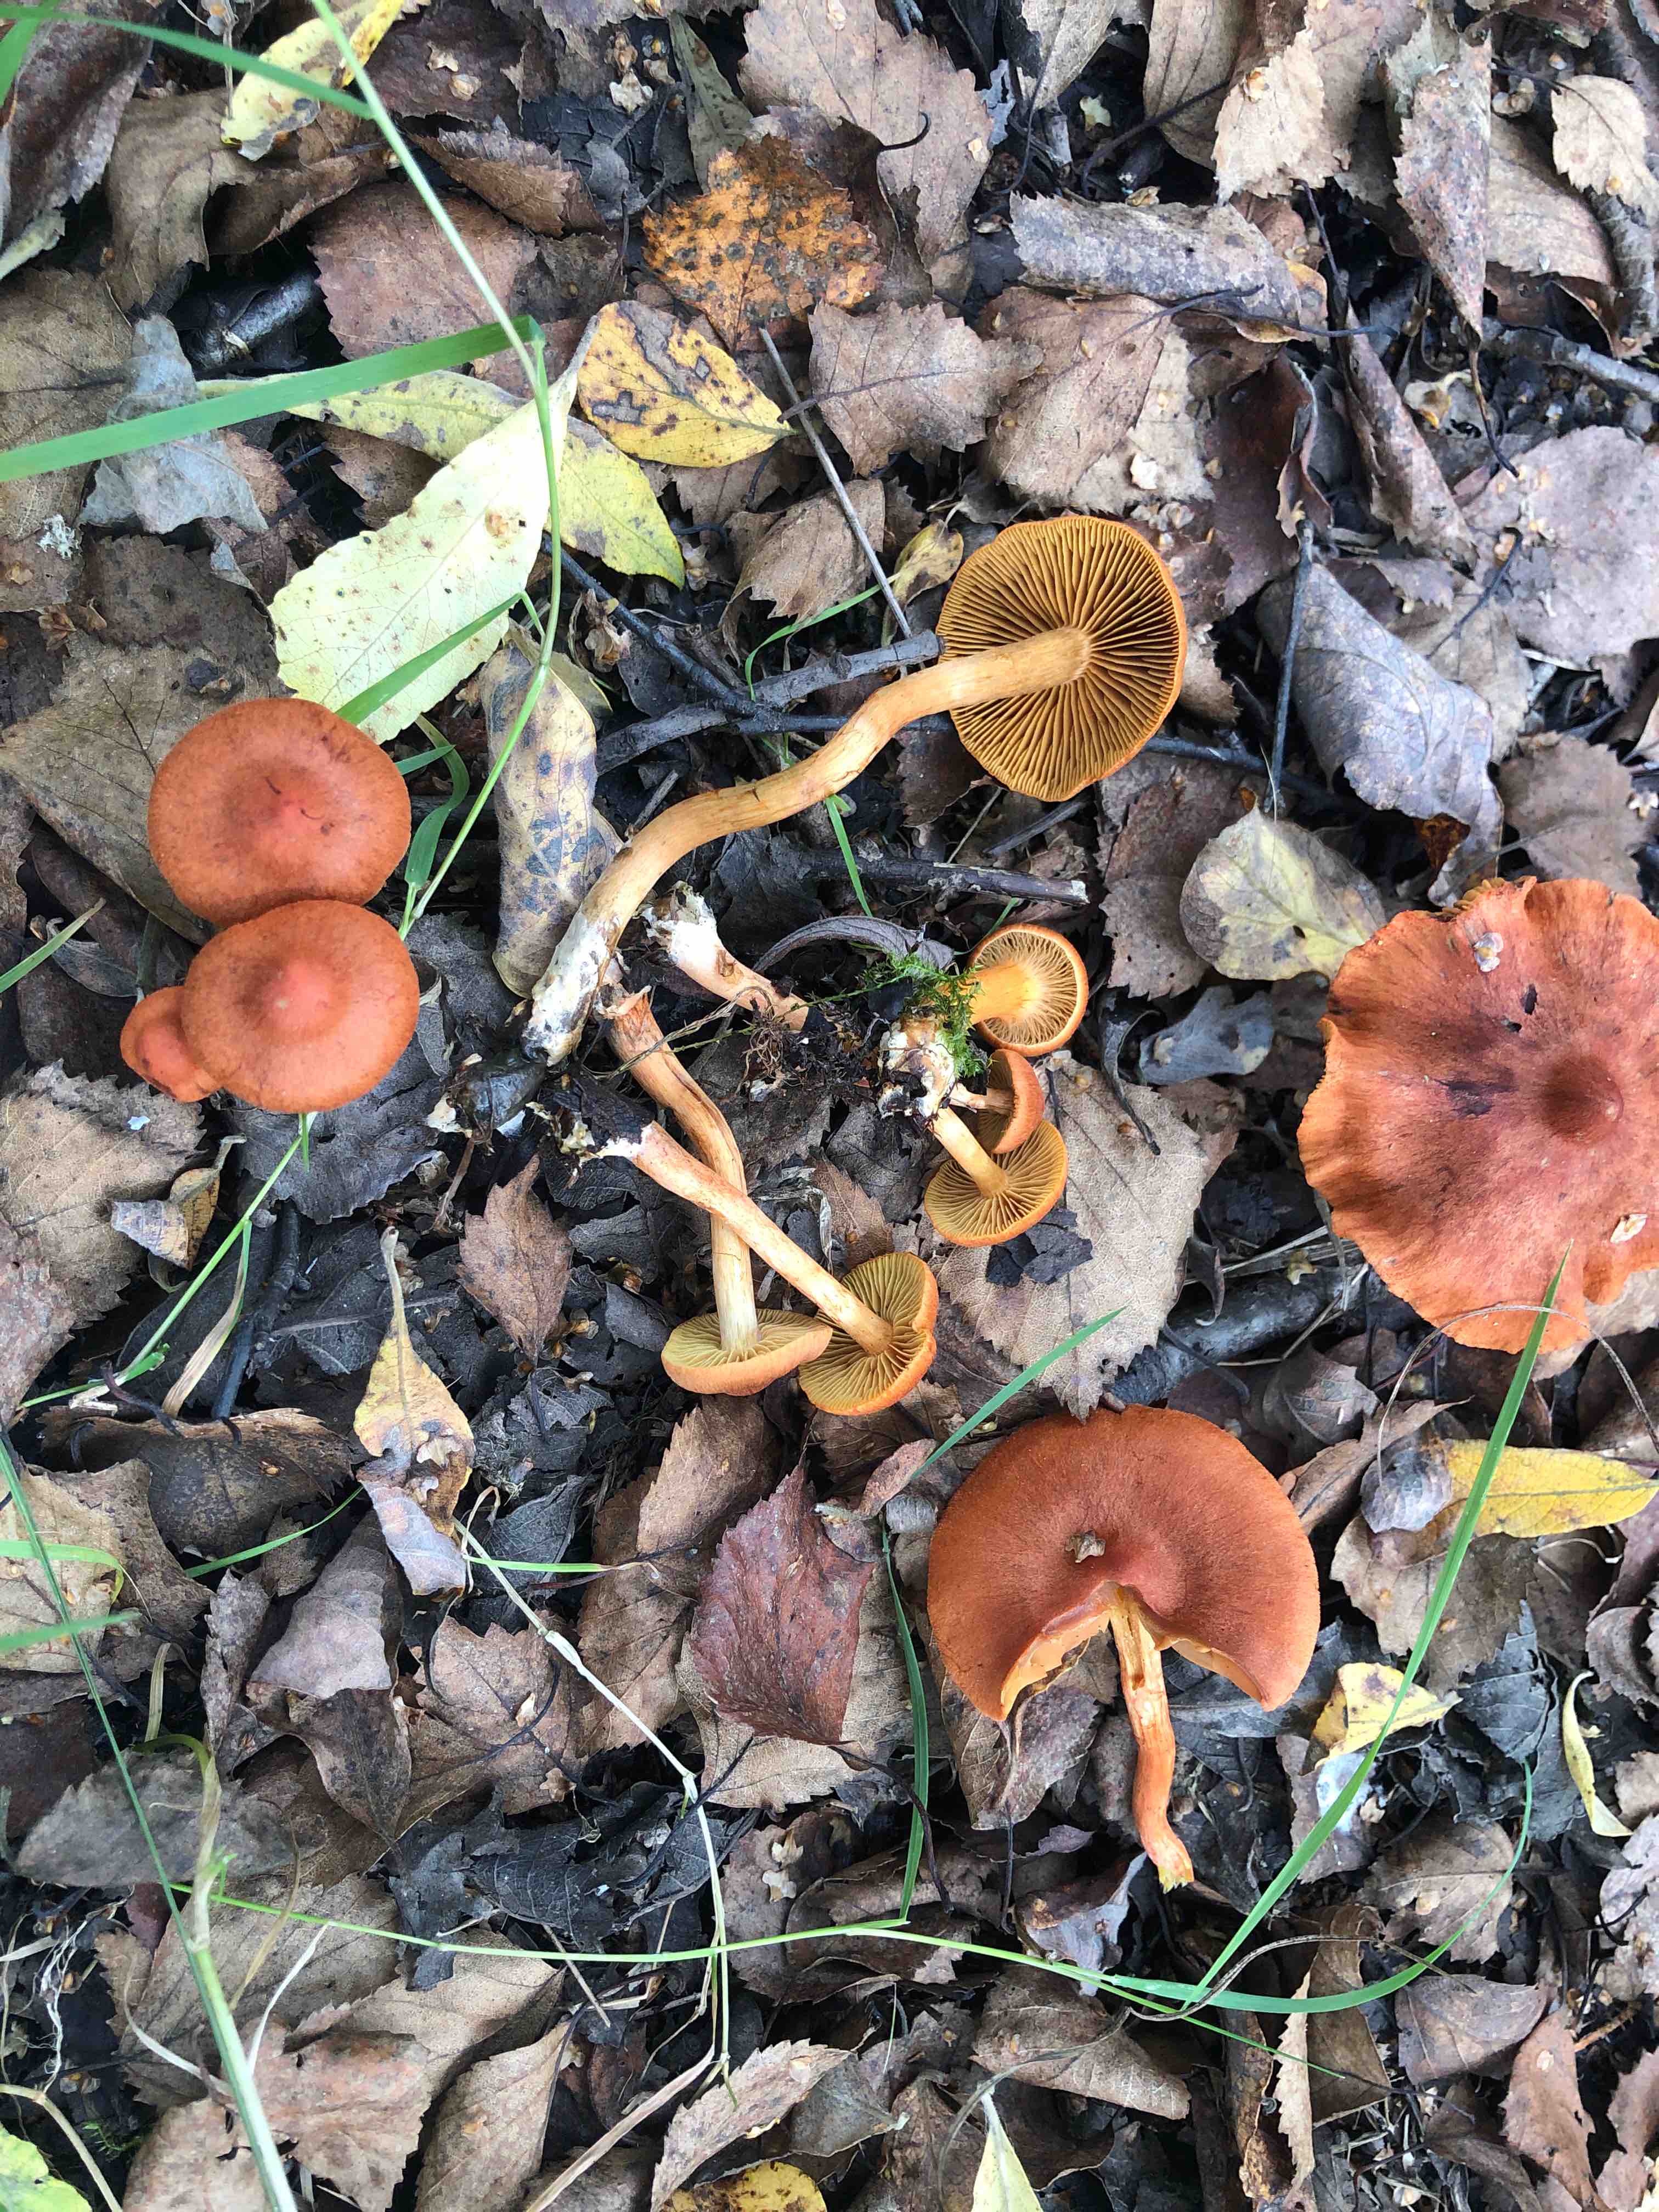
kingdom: Fungi
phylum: Basidiomycota
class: Agaricomycetes
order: Agaricales
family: Cortinariaceae
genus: Cortinarius
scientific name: Cortinarius uliginosus
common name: mose-slørhat
